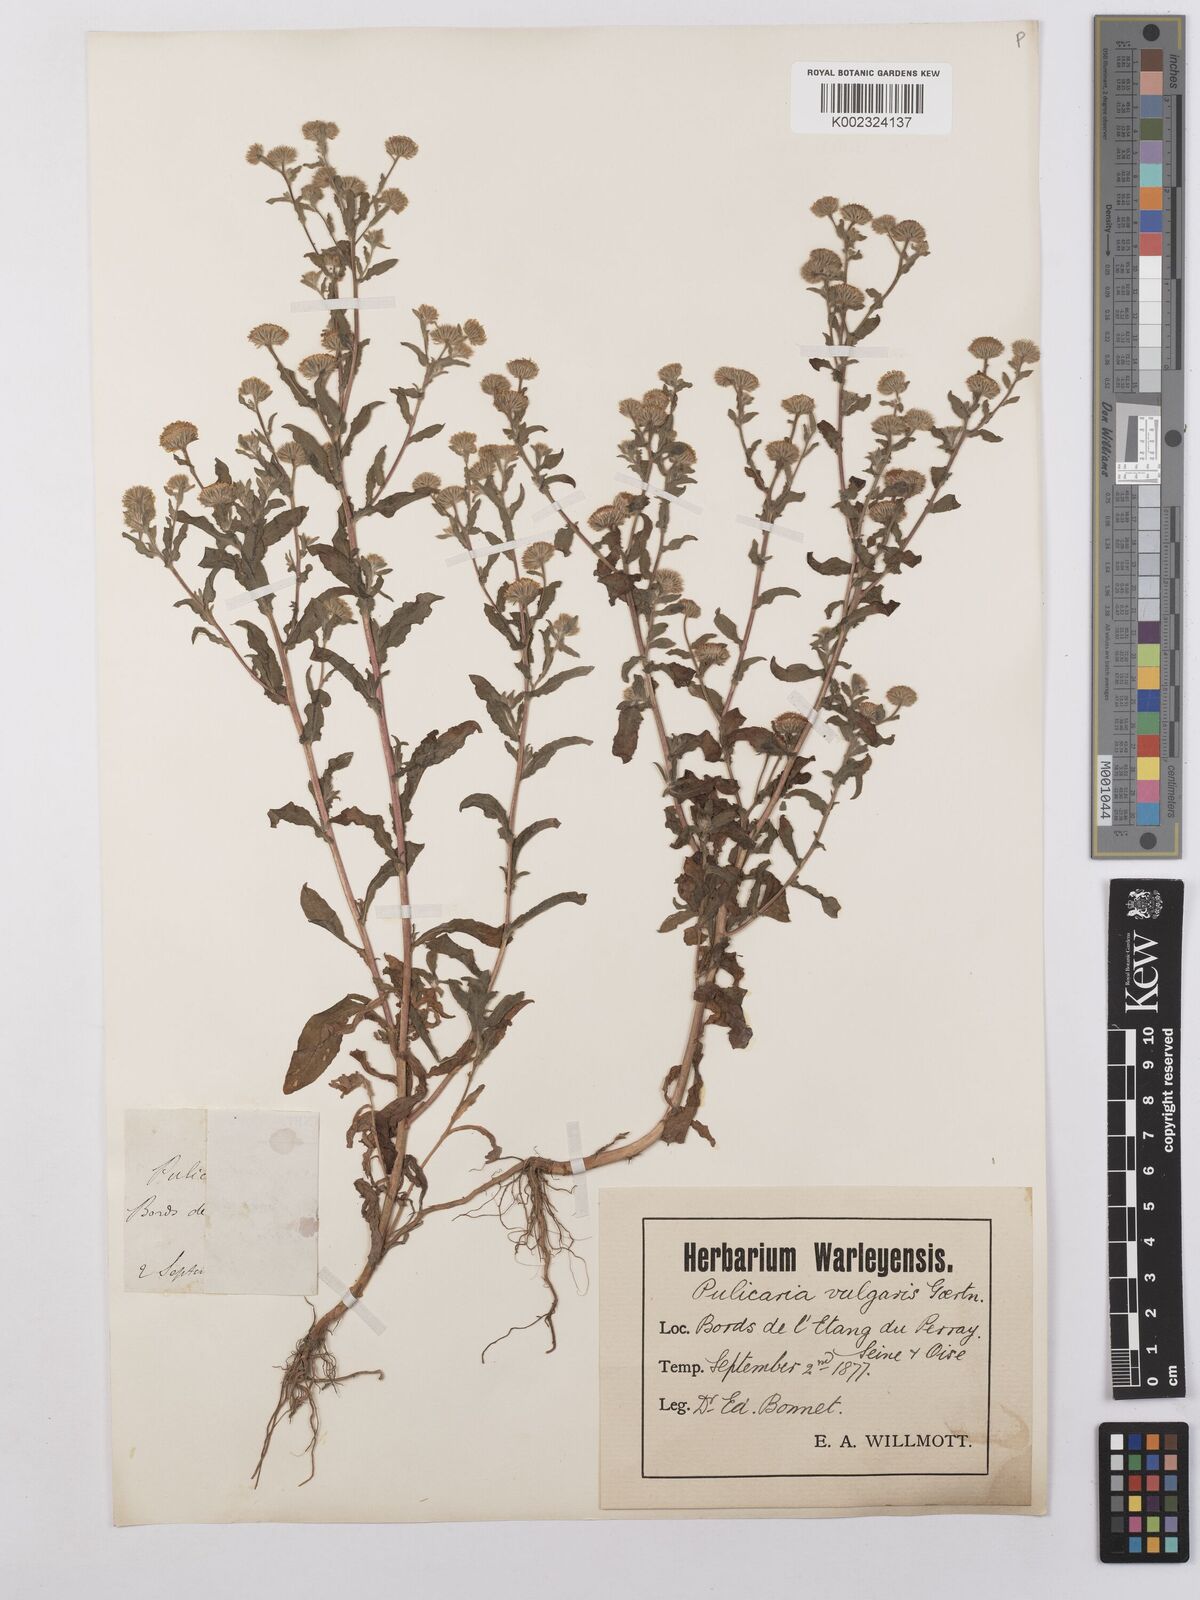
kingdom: Plantae
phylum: Tracheophyta
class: Magnoliopsida
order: Asterales
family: Asteraceae
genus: Pulicaria
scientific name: Pulicaria vulgaris
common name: Small fleabane
